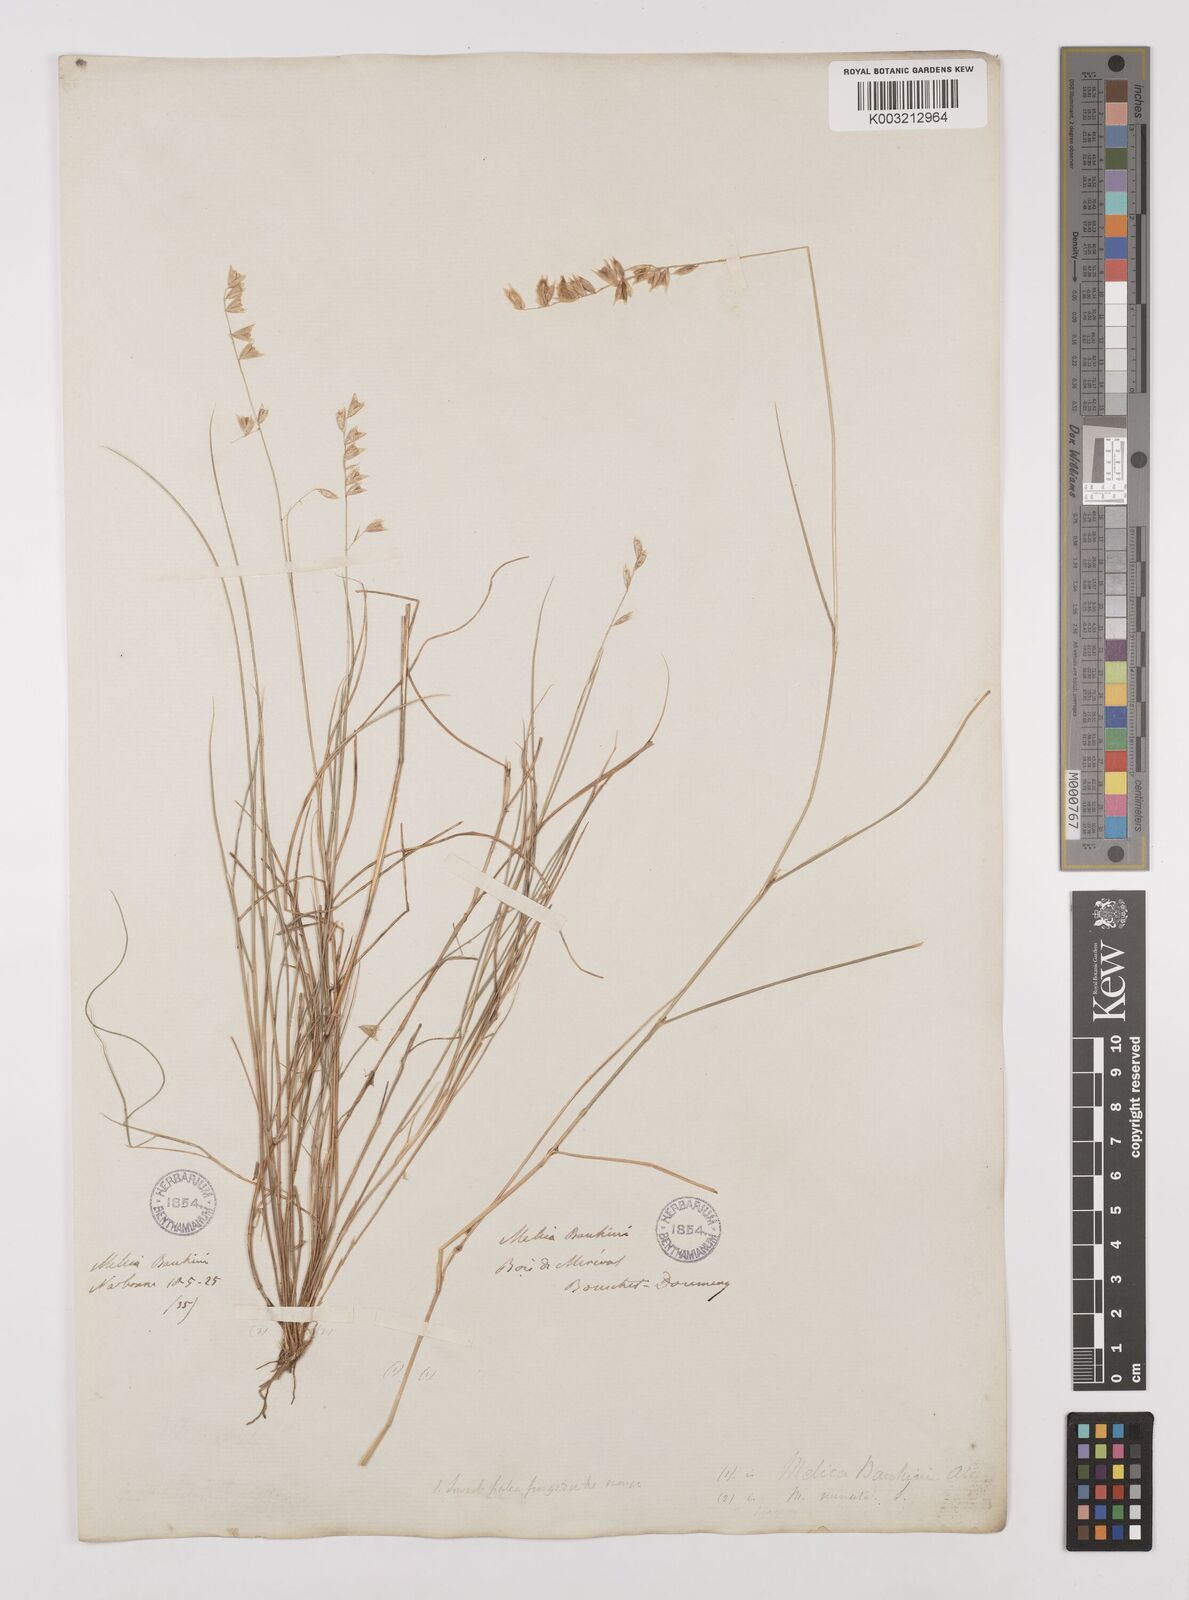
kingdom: Plantae
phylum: Tracheophyta
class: Liliopsida
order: Poales
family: Poaceae
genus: Melica
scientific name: Melica amethystina
